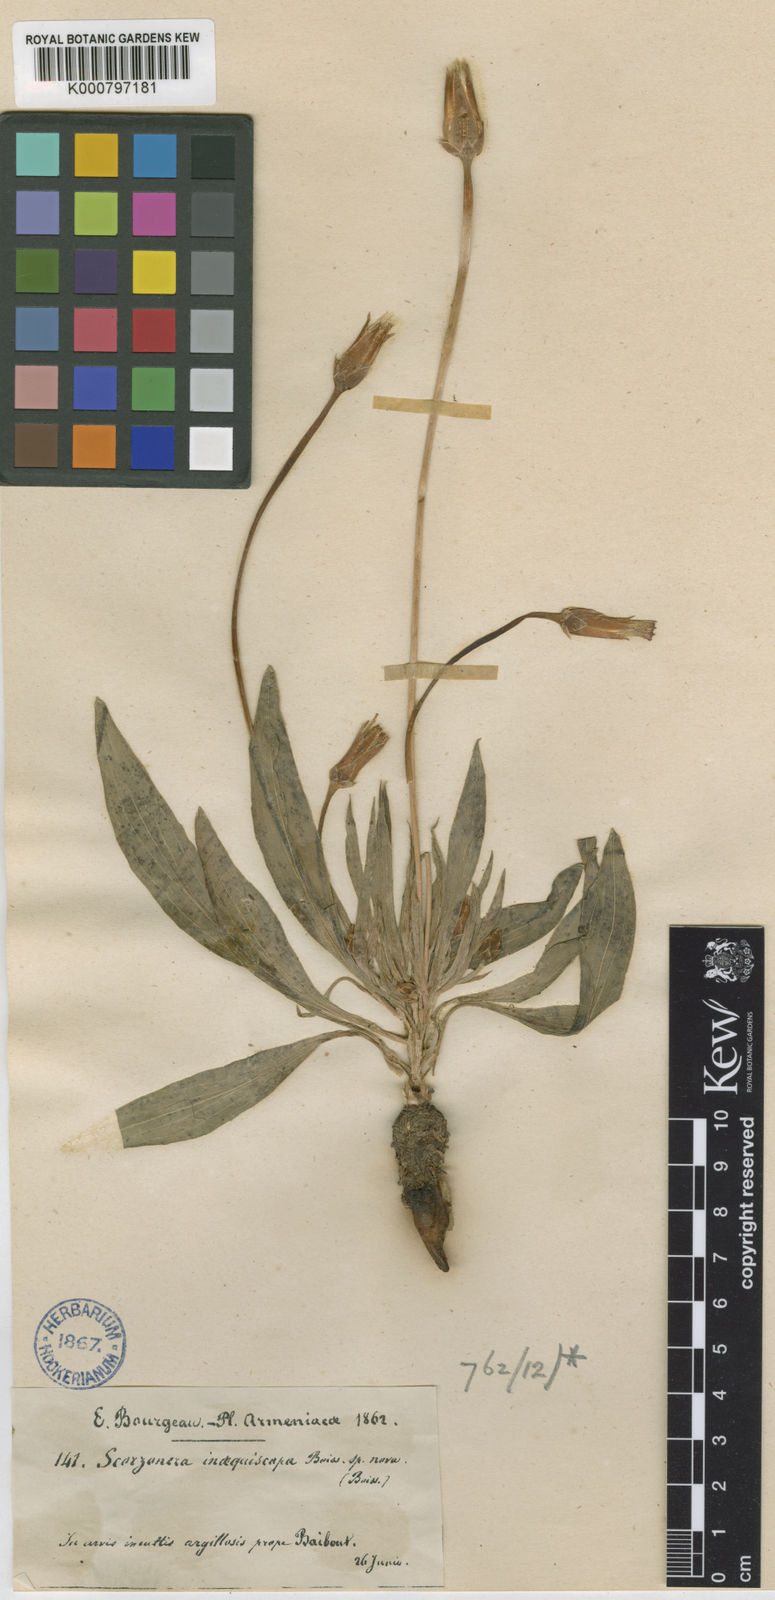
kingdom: Plantae
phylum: Tracheophyta
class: Magnoliopsida
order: Asterales
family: Asteraceae
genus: Pseudopodospermum
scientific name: Pseudopodospermum inaequiscapum
